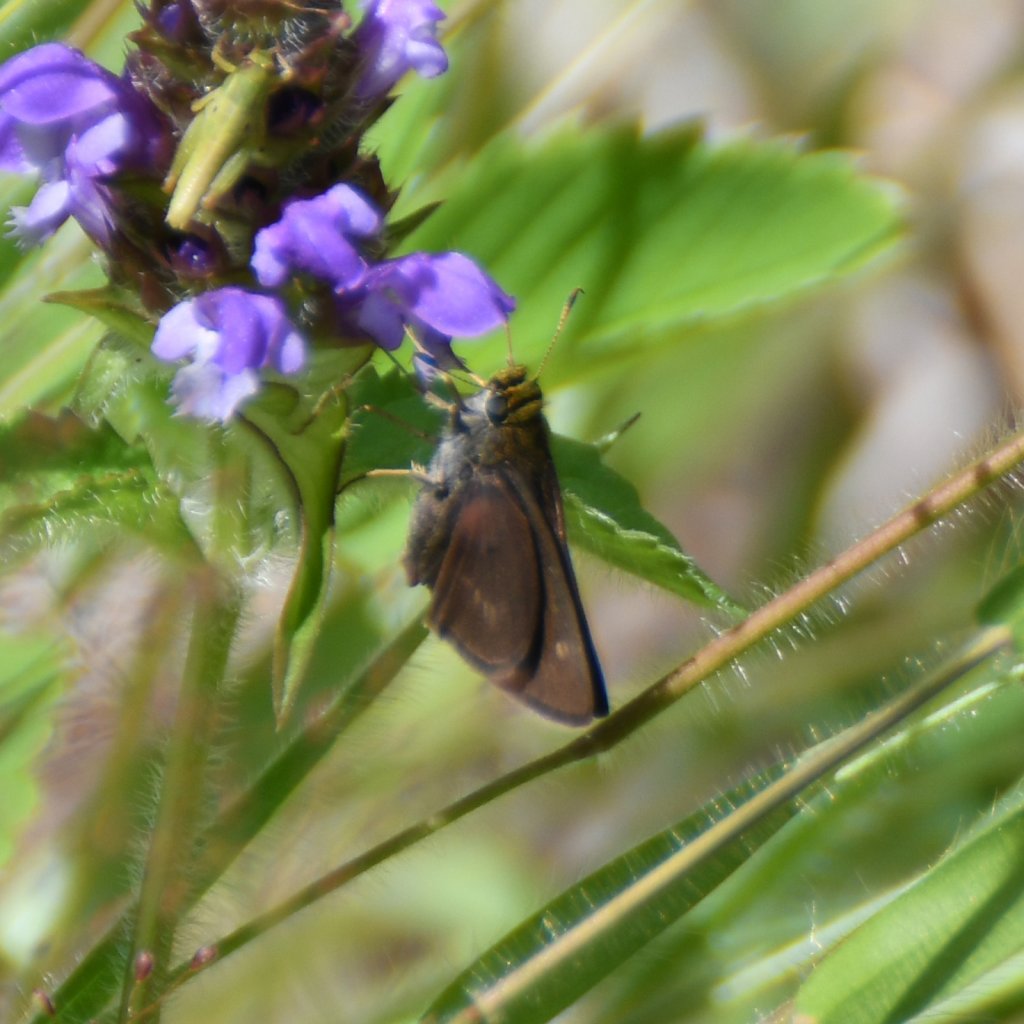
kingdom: Animalia
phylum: Arthropoda
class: Insecta
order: Lepidoptera
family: Hesperiidae
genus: Euphyes
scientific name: Euphyes vestris
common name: Dun Skipper
